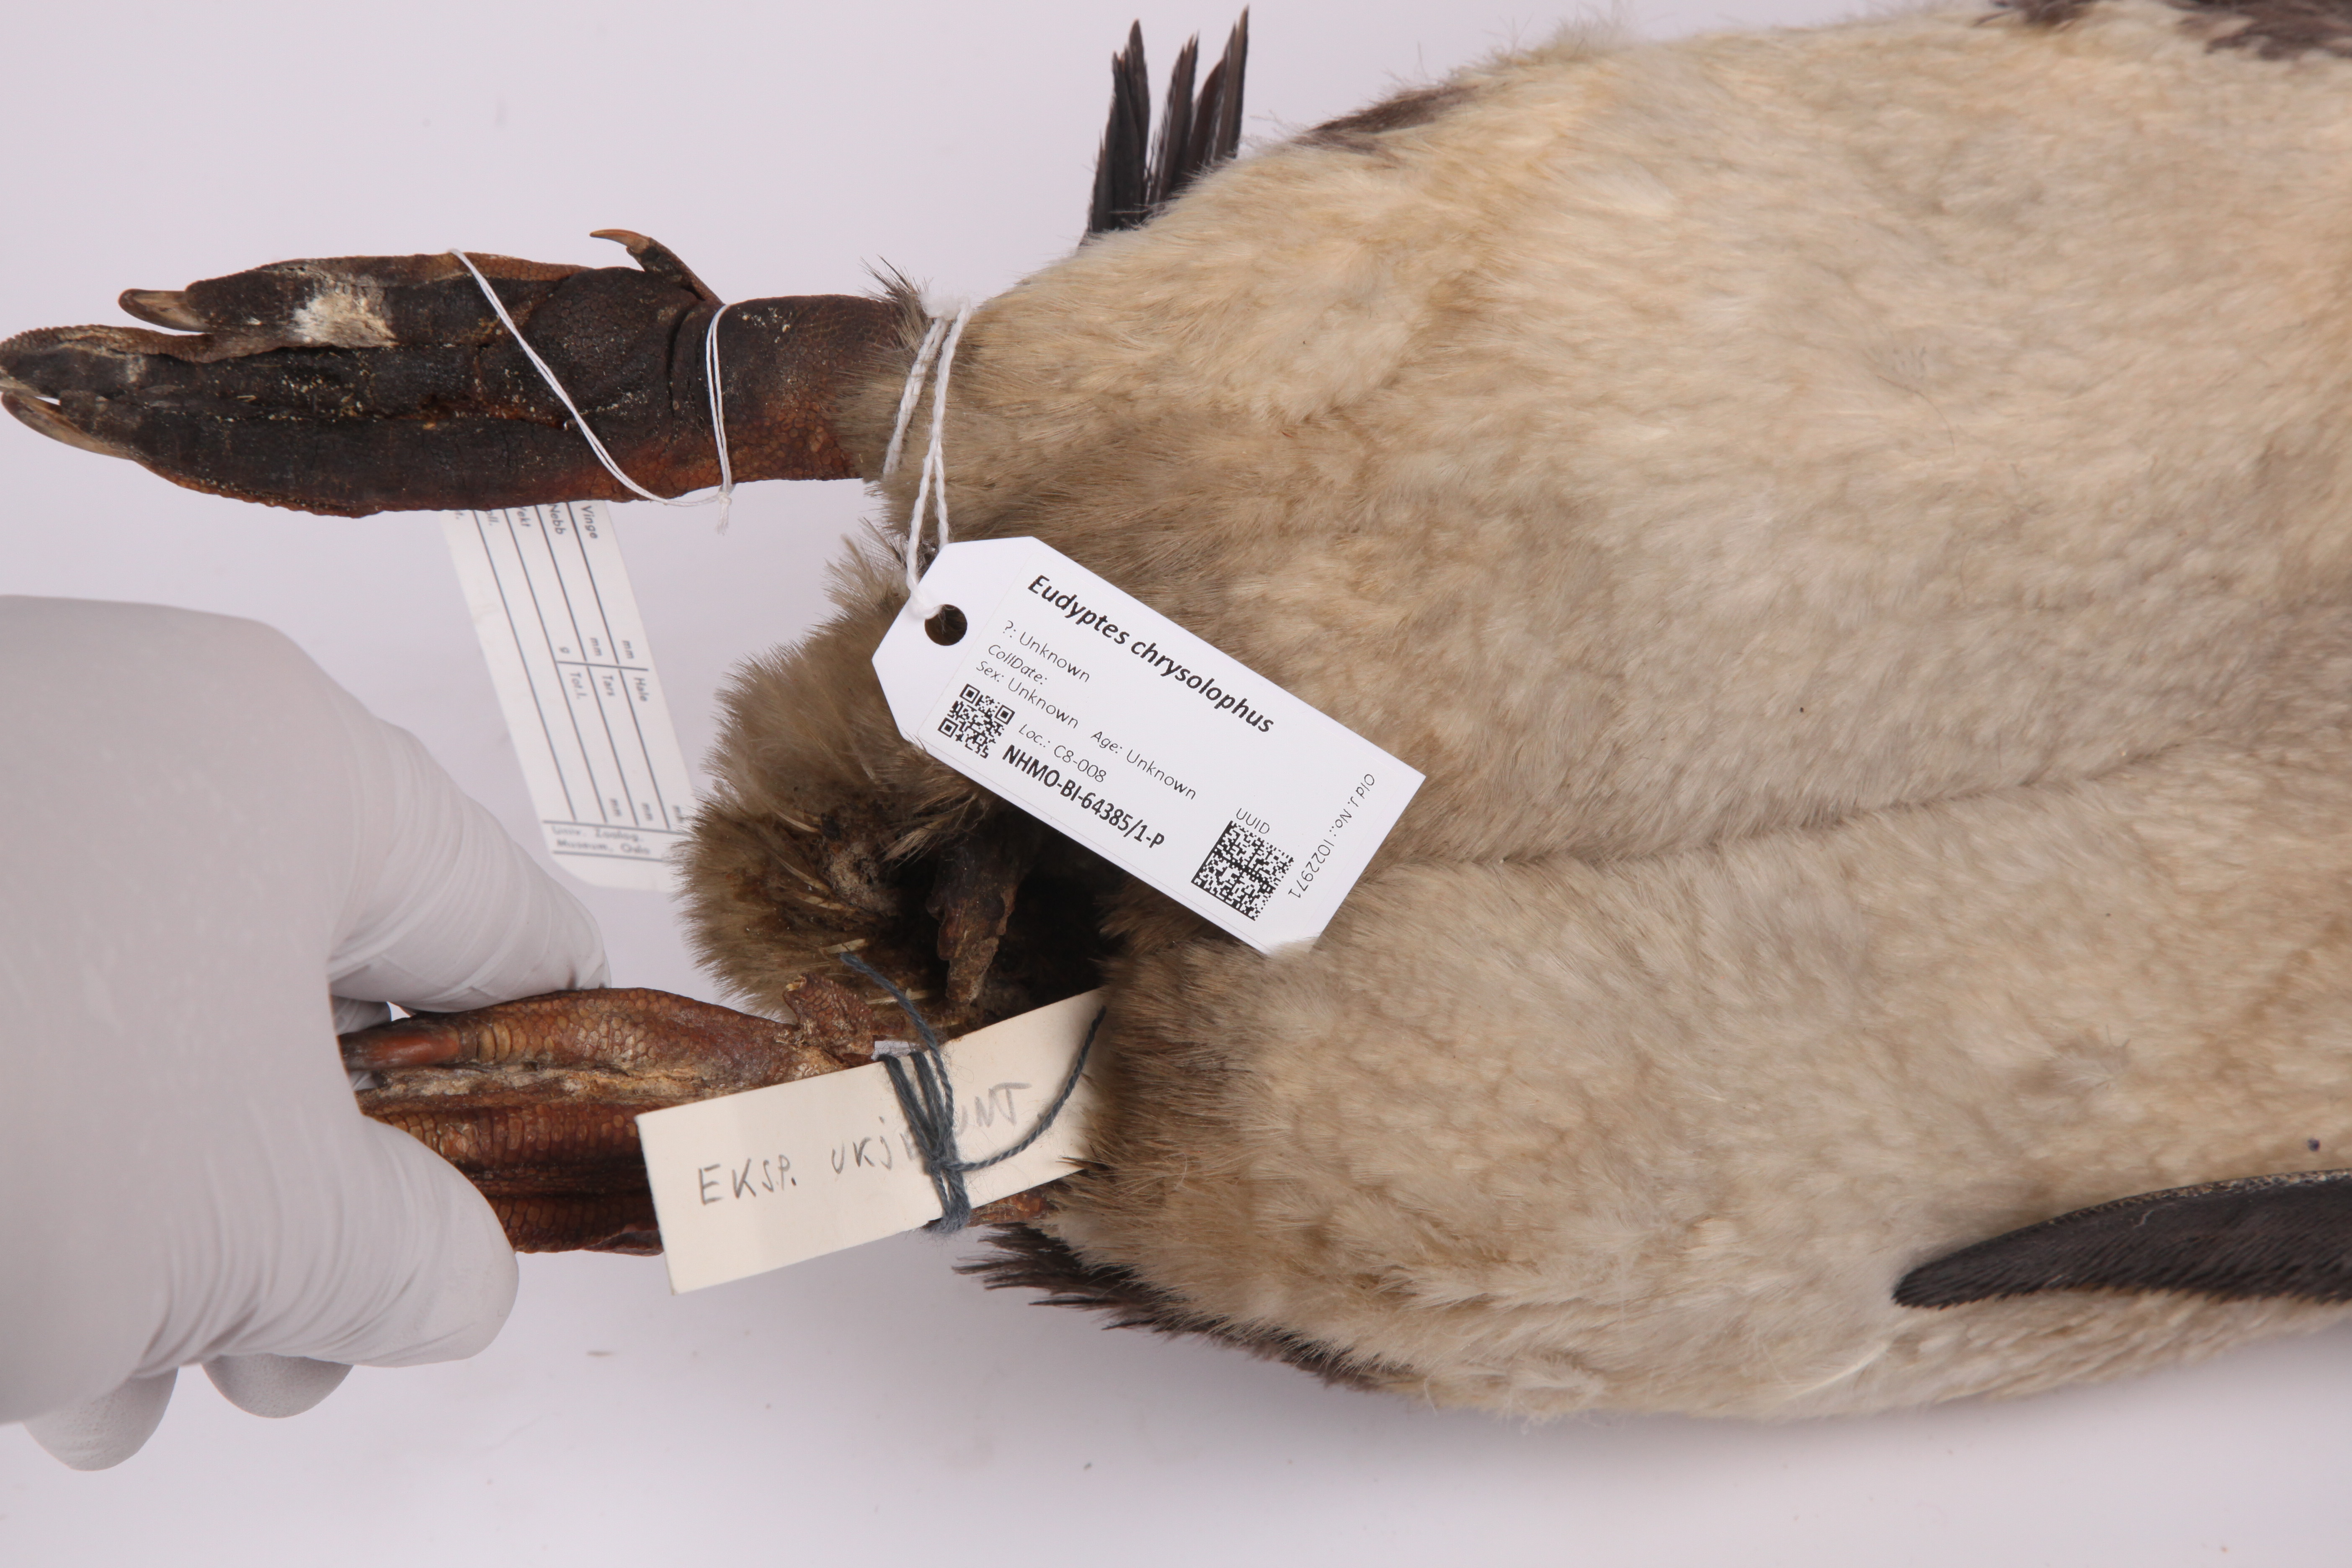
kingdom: Animalia
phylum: Chordata
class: Aves
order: Sphenisciformes
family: Spheniscidae
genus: Eudyptes
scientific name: Eudyptes chrysolophus
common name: Macaroni penguin
